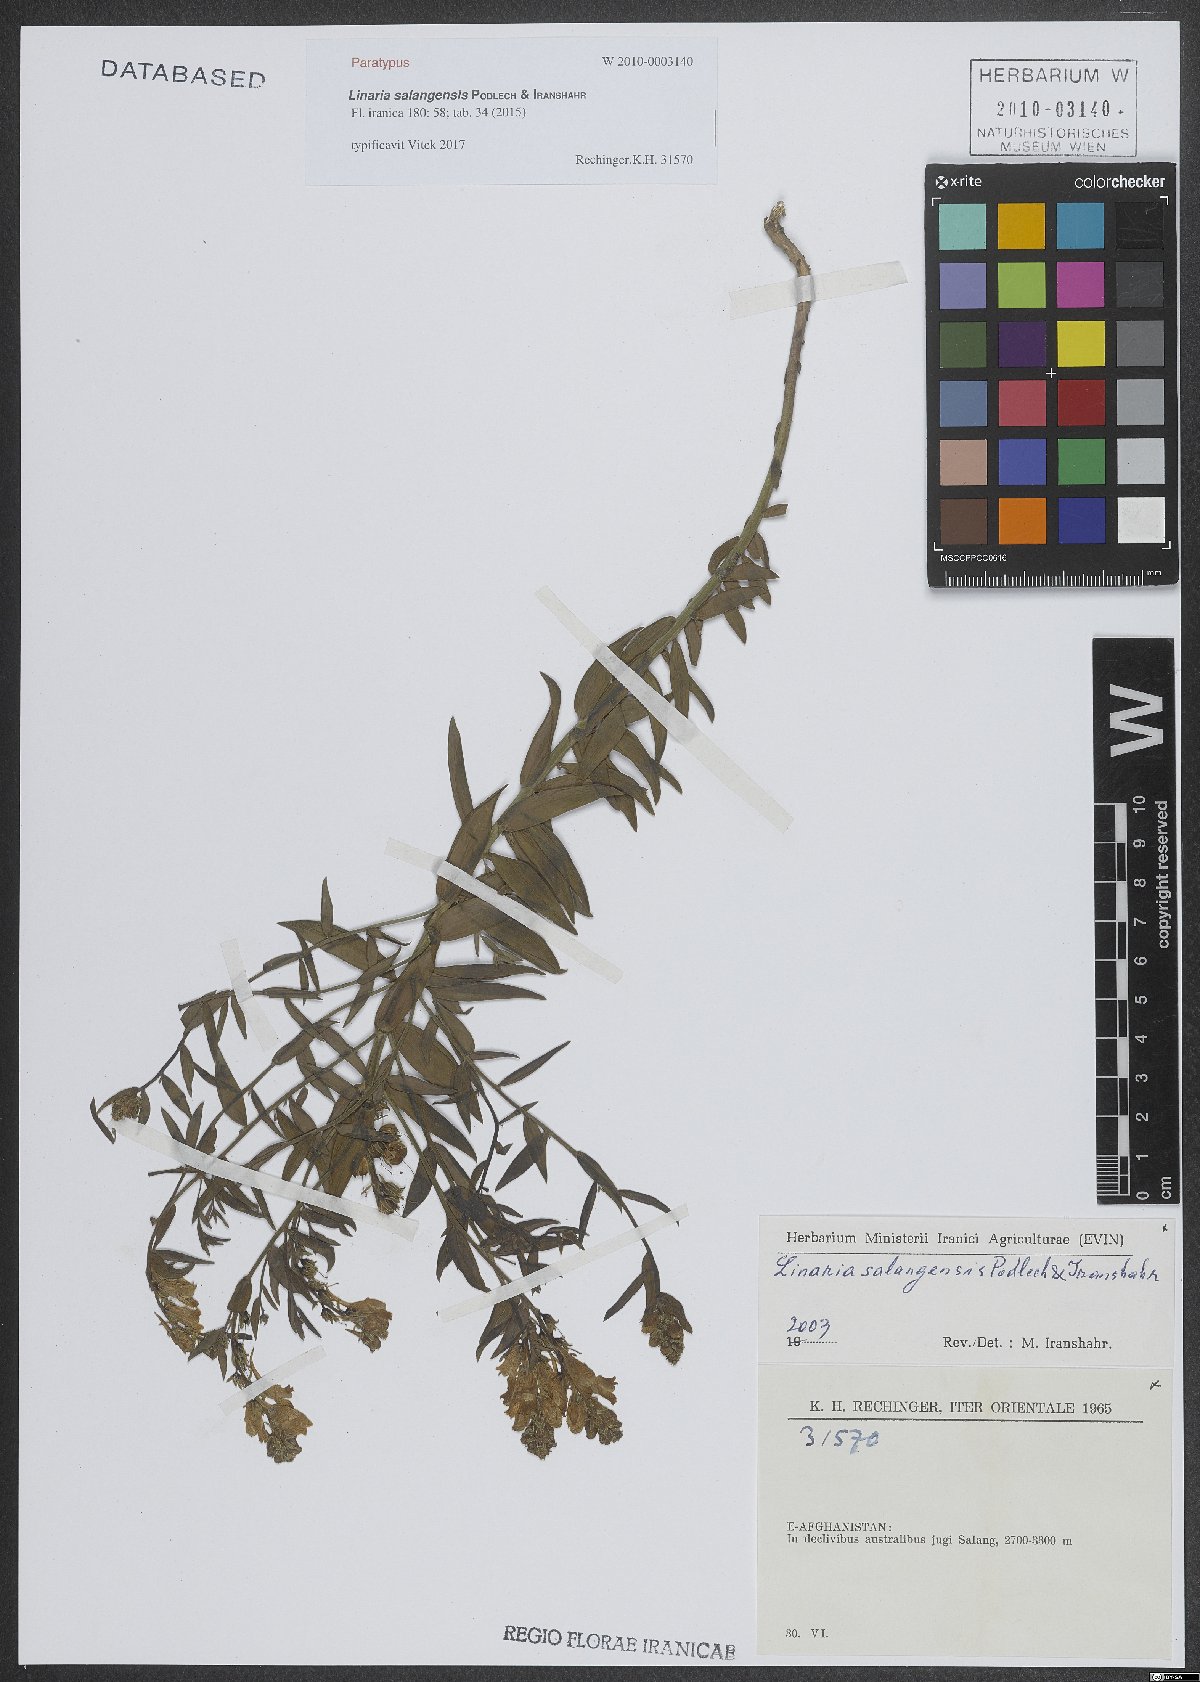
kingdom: Plantae
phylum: Tracheophyta
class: Magnoliopsida
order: Lamiales
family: Plantaginaceae
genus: Linaria
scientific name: Linaria salangensis
